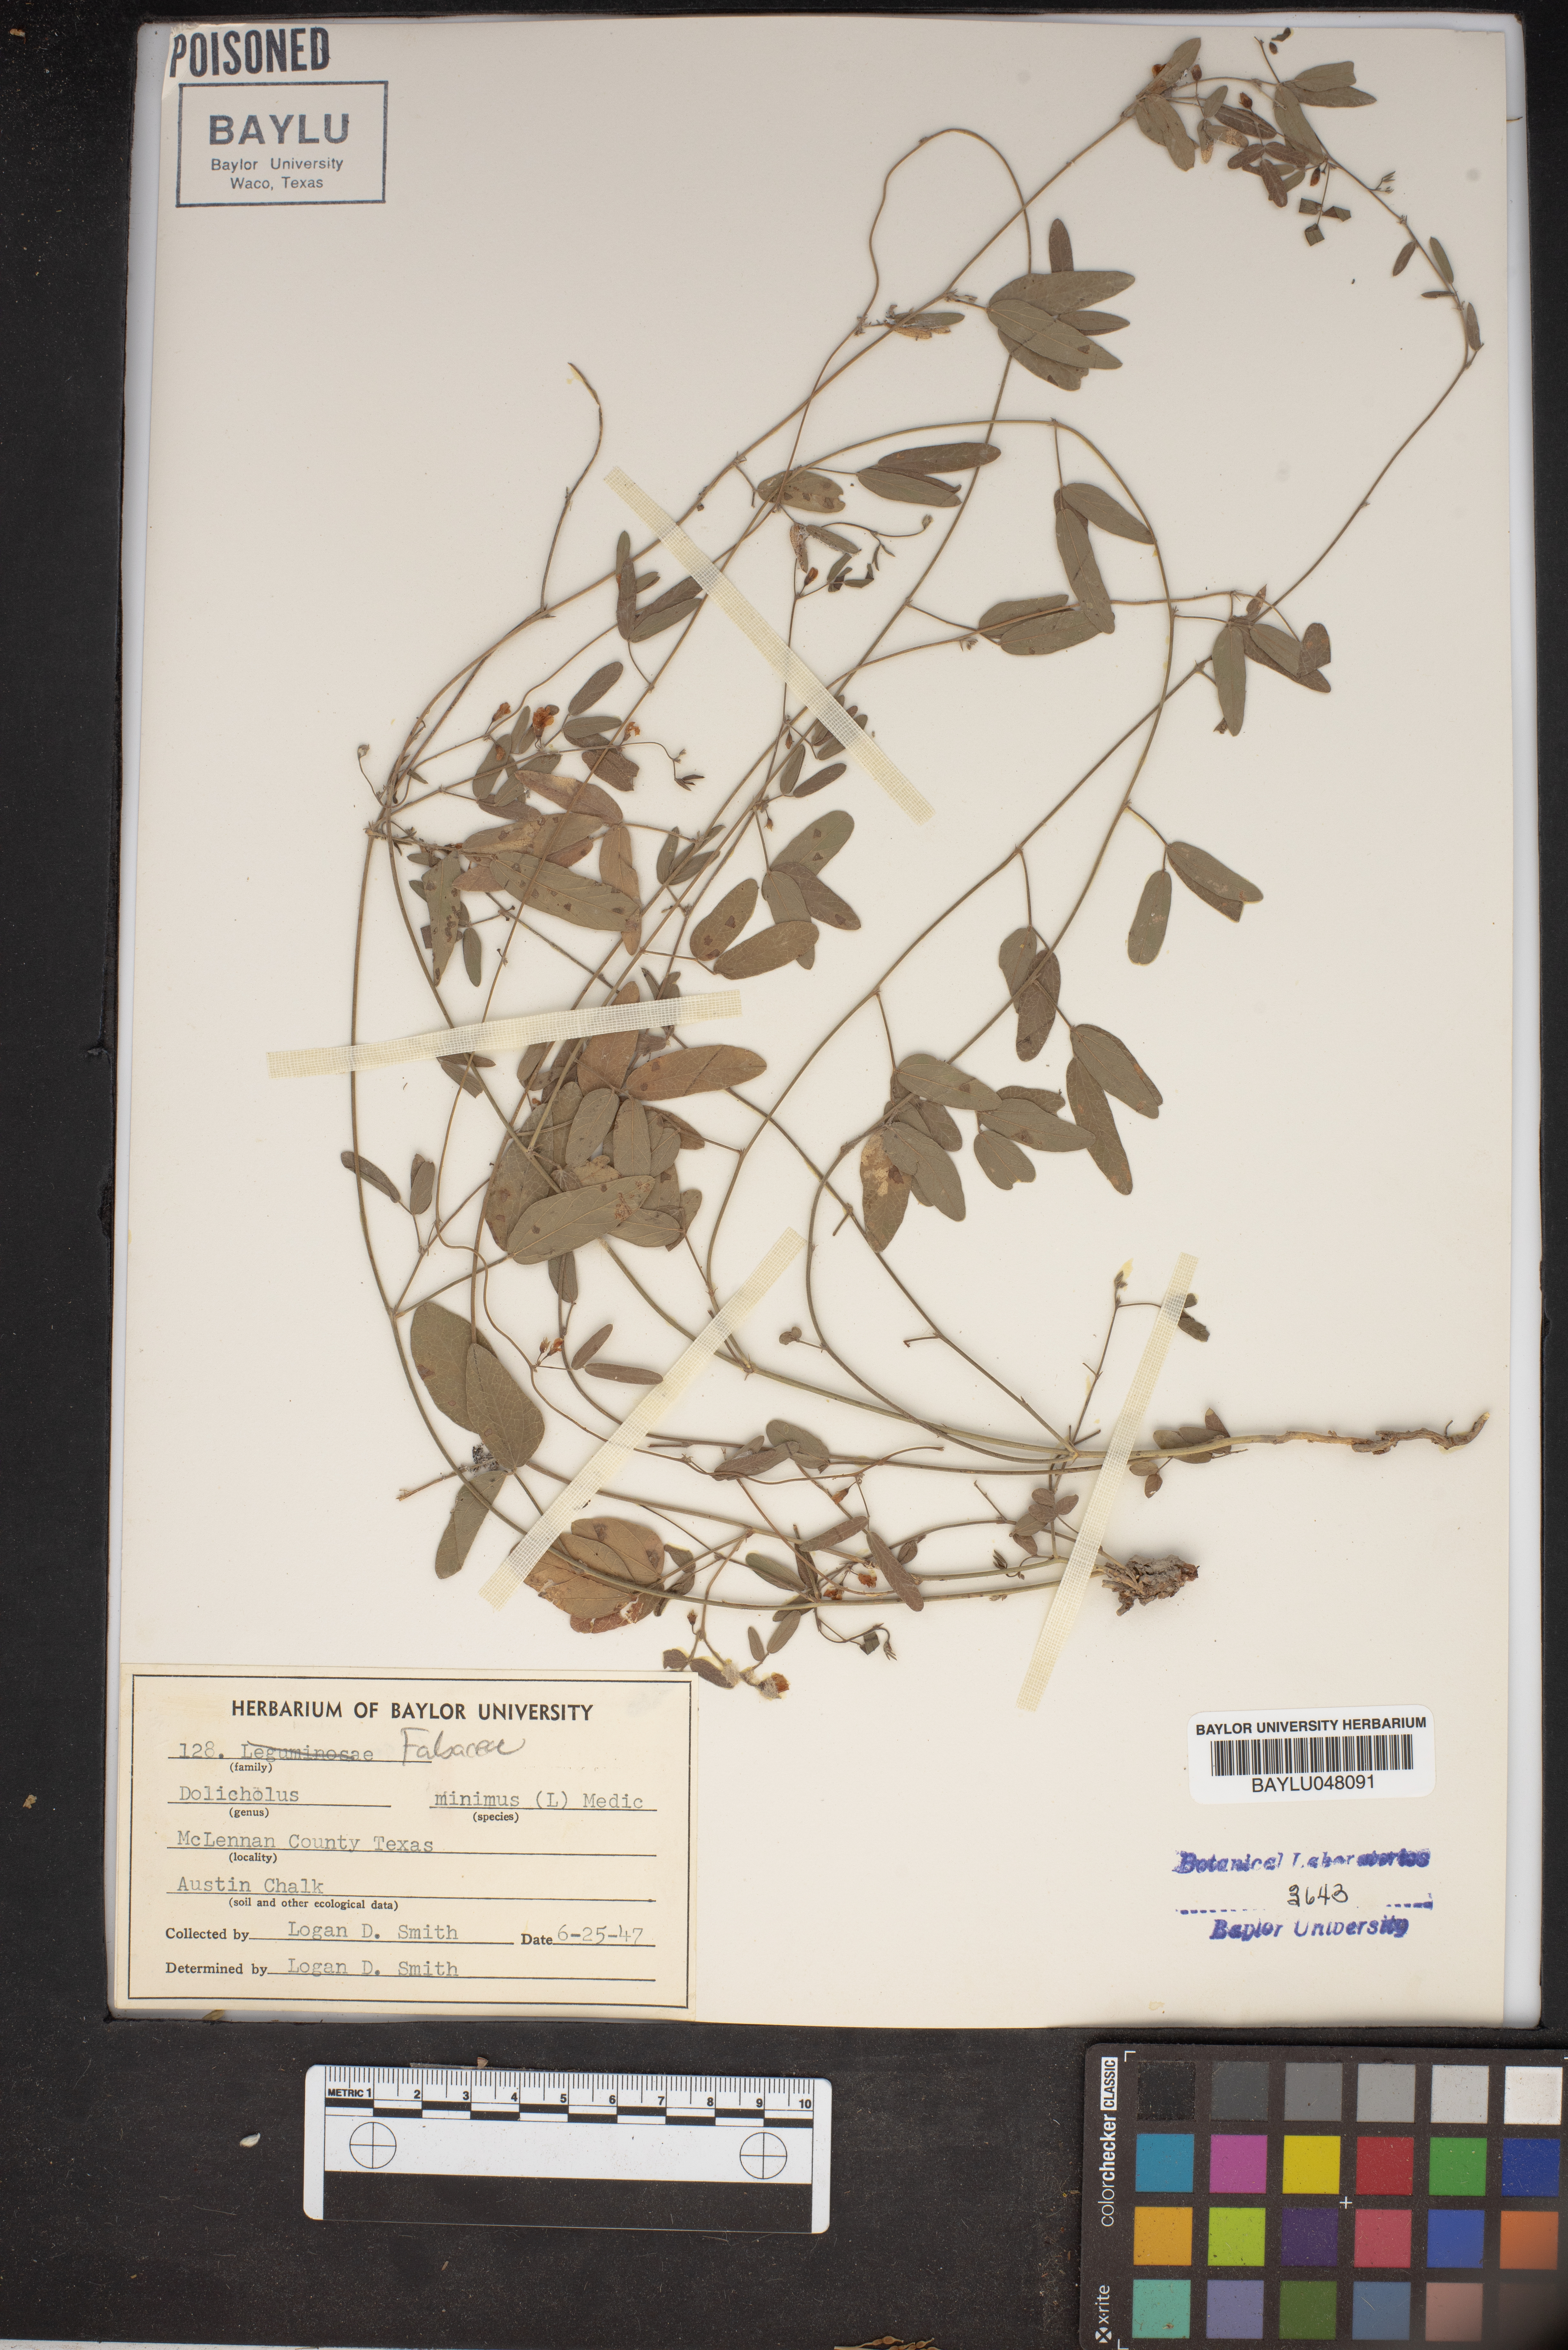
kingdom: Plantae
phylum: Tracheophyta
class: Magnoliopsida
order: Fabales
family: Fabaceae
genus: Rhynchosia
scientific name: Rhynchosia minima
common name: Least snoutbean
